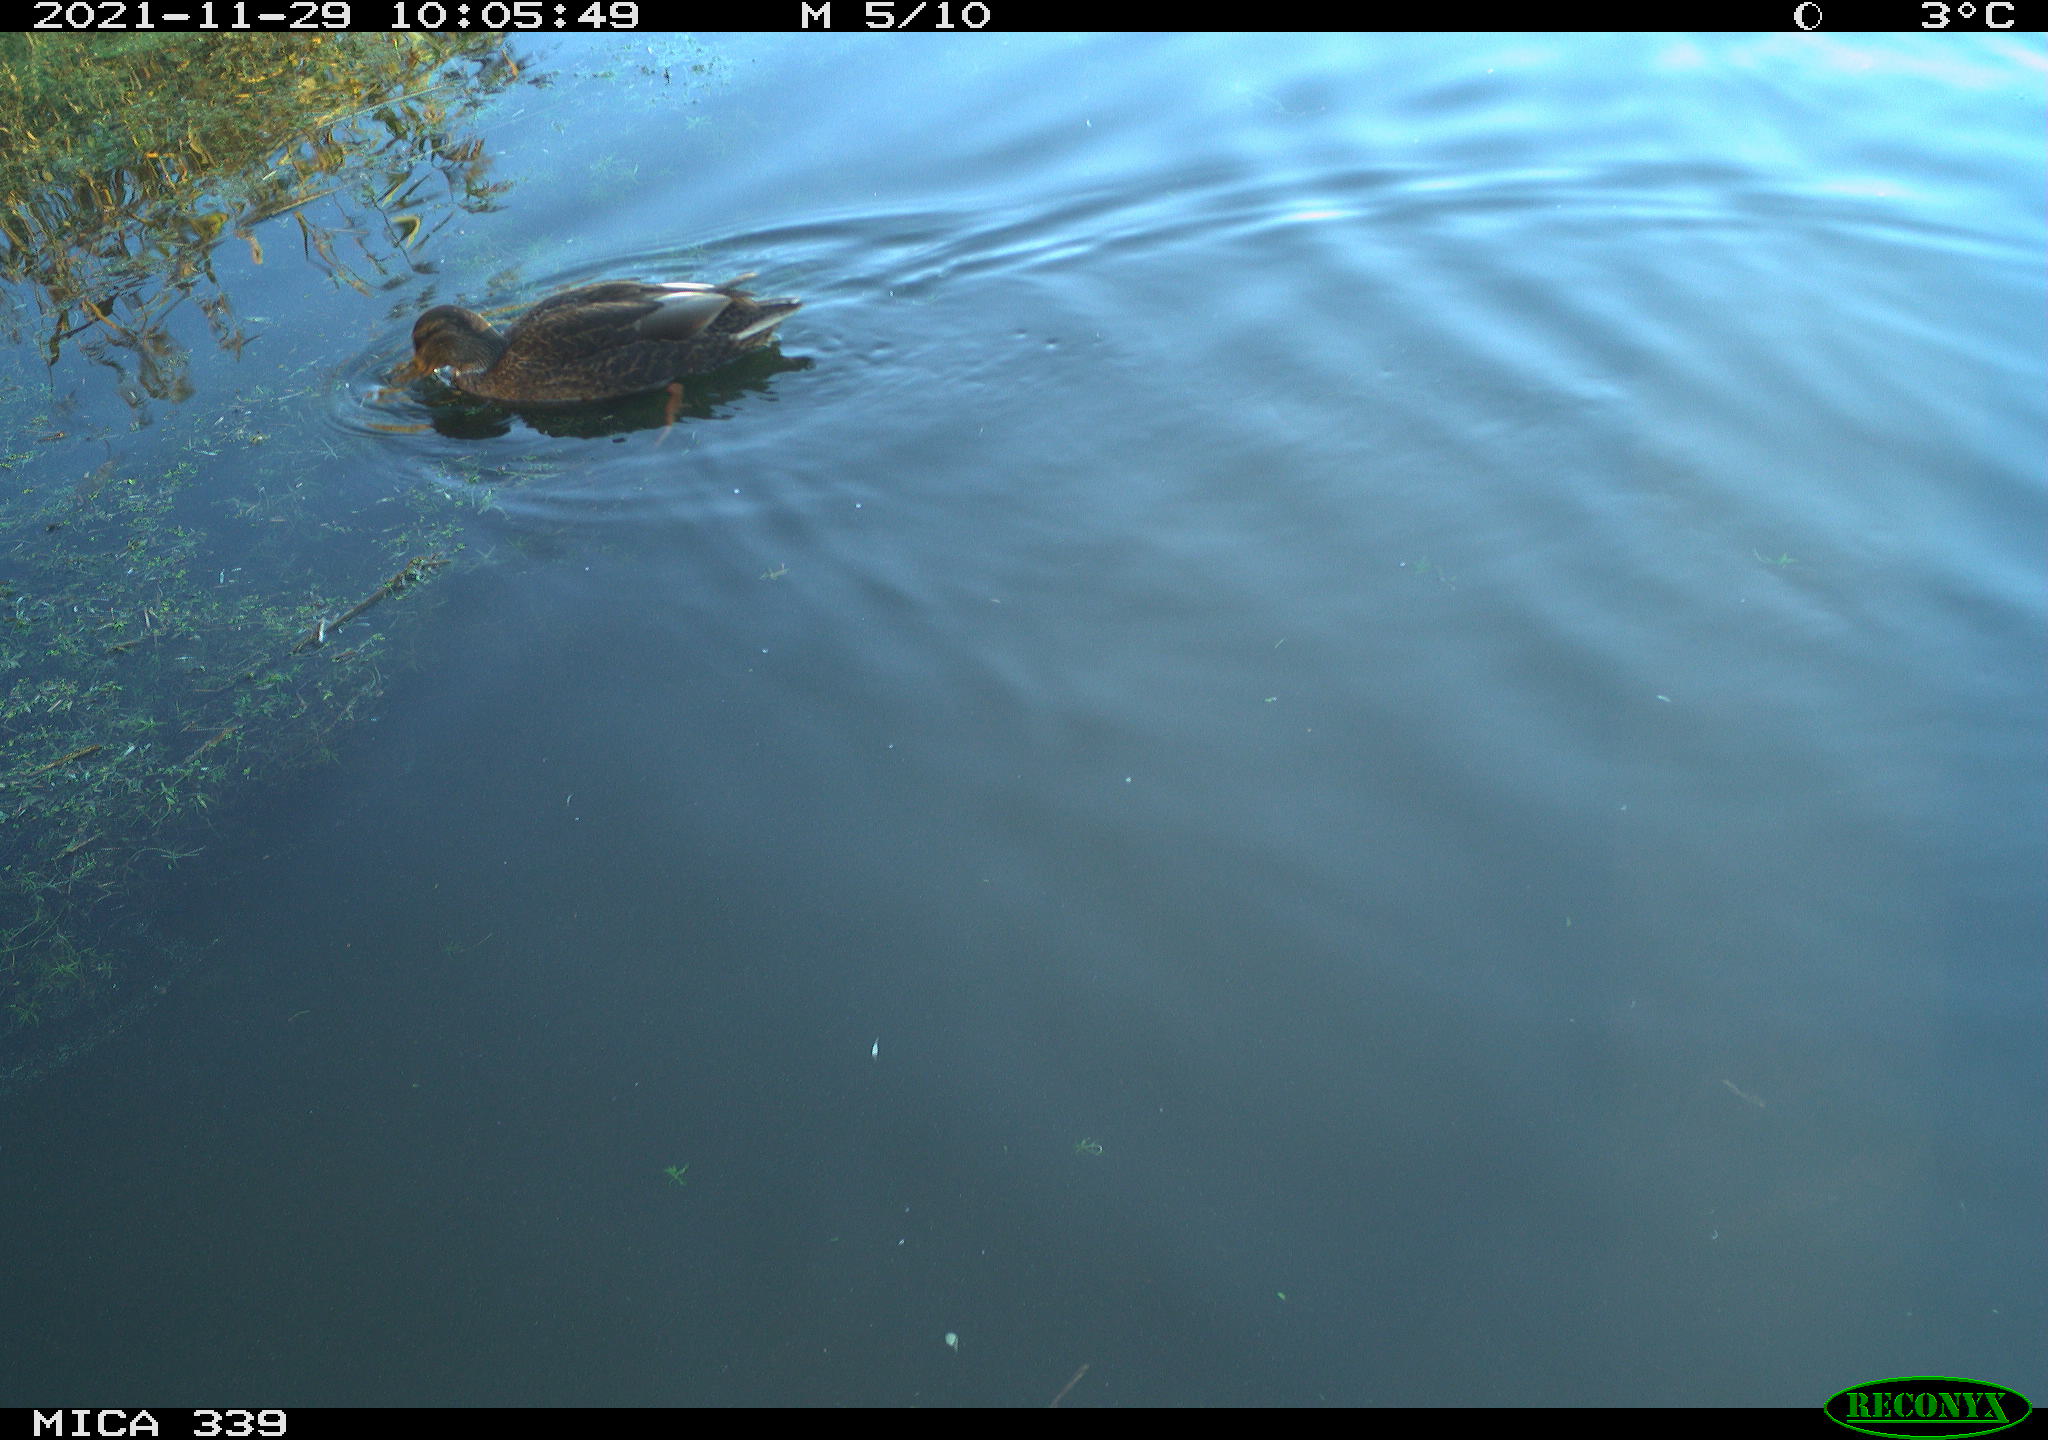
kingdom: Animalia
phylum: Chordata
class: Aves
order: Anseriformes
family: Anatidae
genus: Anas
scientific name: Anas platyrhynchos
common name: Mallard
